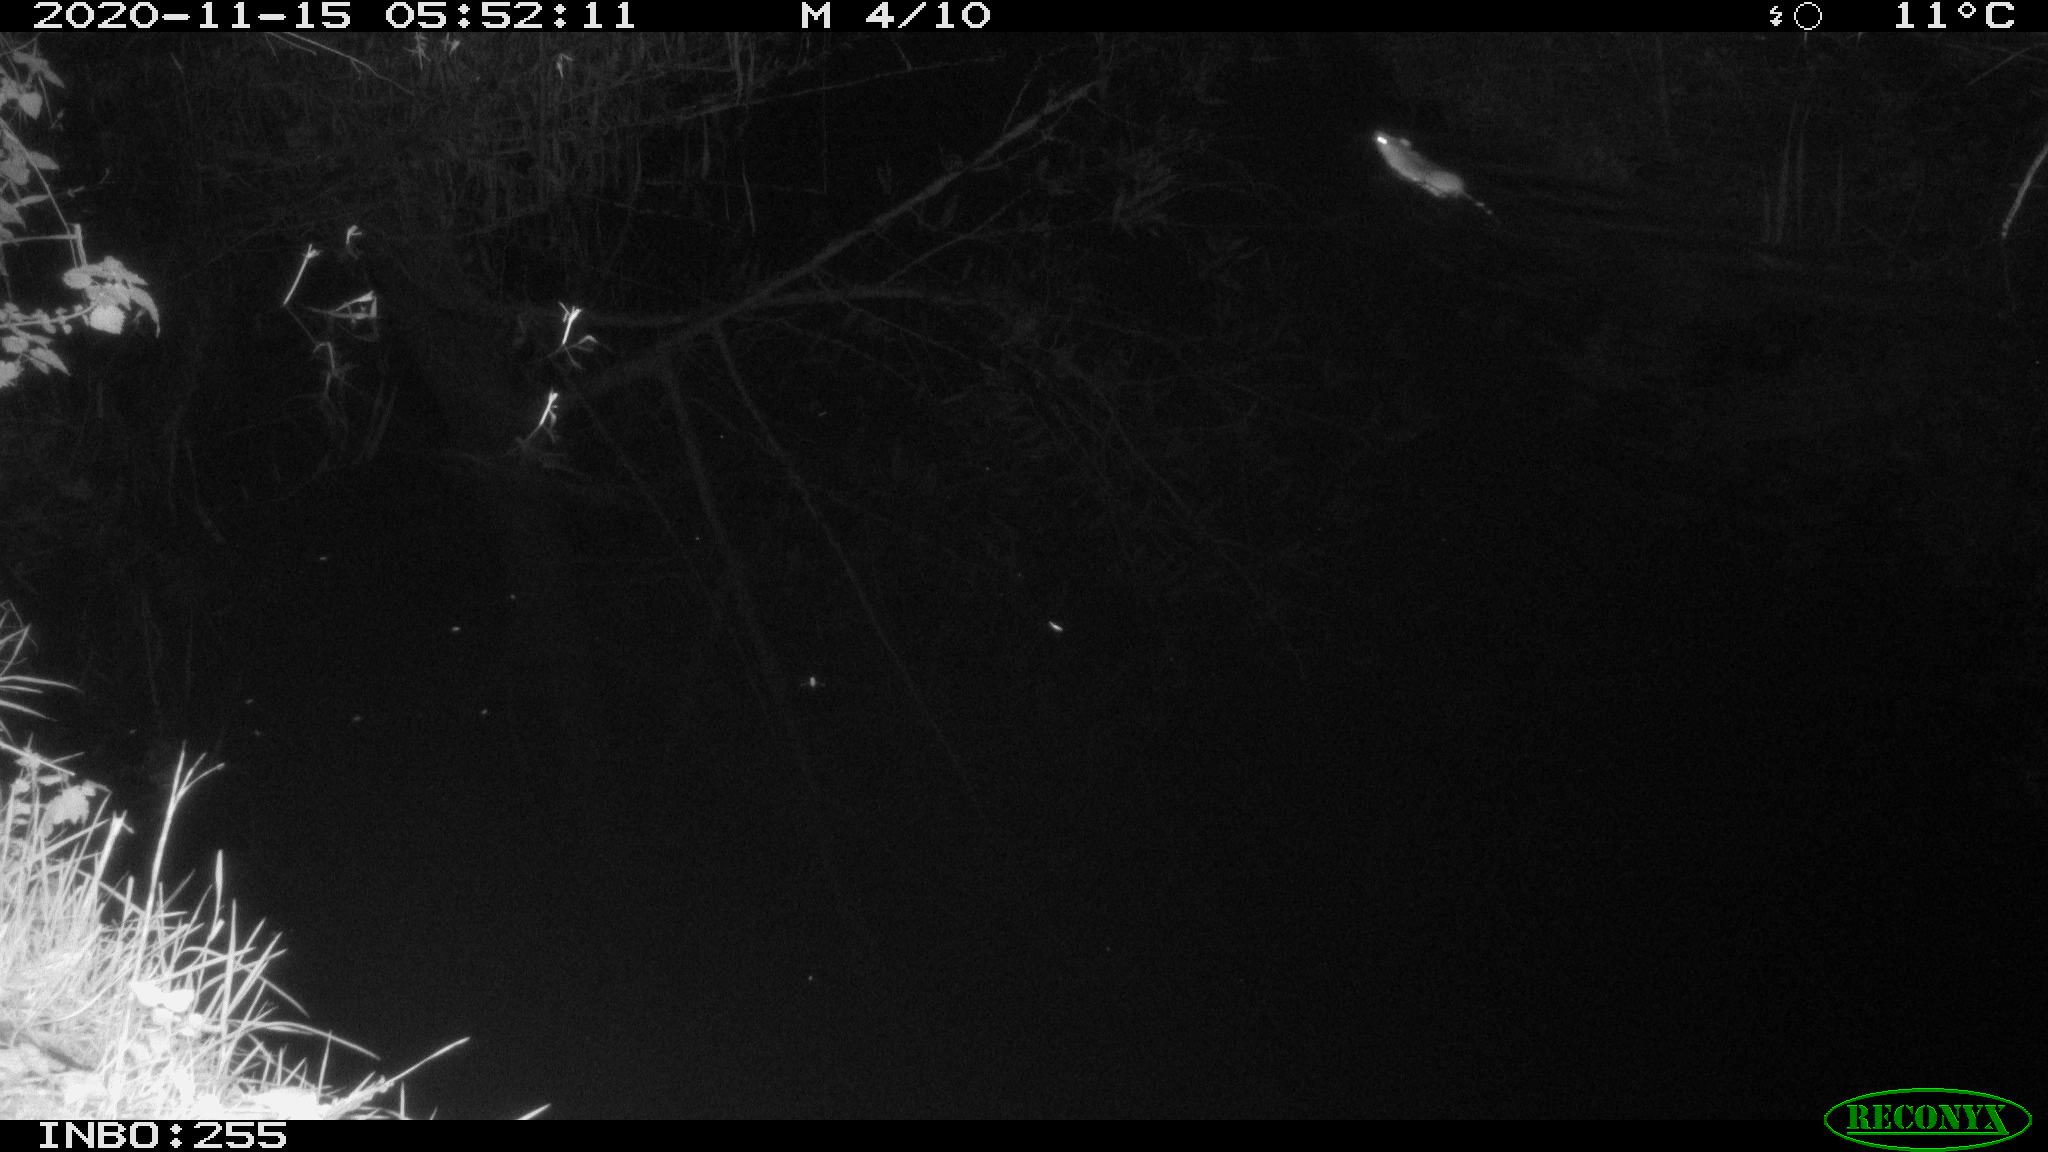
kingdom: Animalia
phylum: Chordata
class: Mammalia
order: Rodentia
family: Muridae
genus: Rattus
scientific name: Rattus norvegicus
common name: Brown rat
